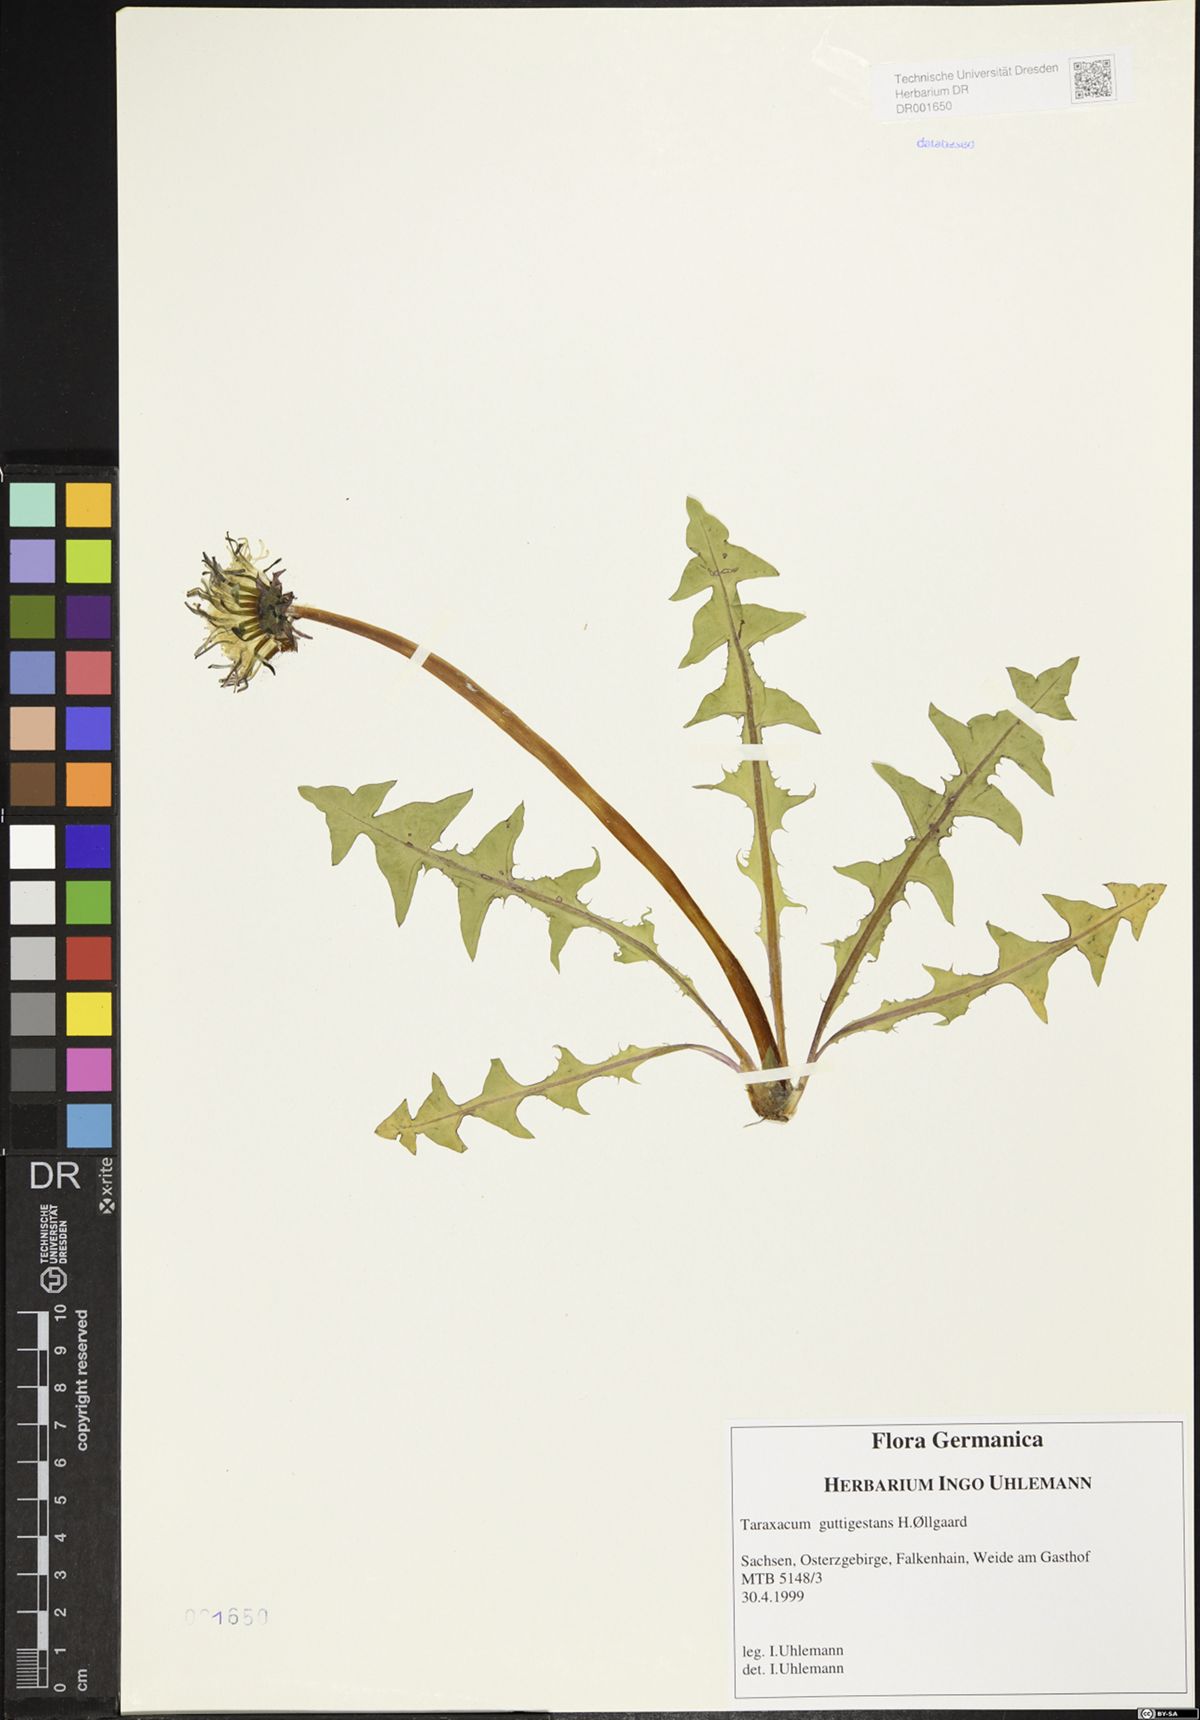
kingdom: Plantae
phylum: Tracheophyta
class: Magnoliopsida
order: Asterales
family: Asteraceae
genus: Taraxacum
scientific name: Taraxacum guttigestans
